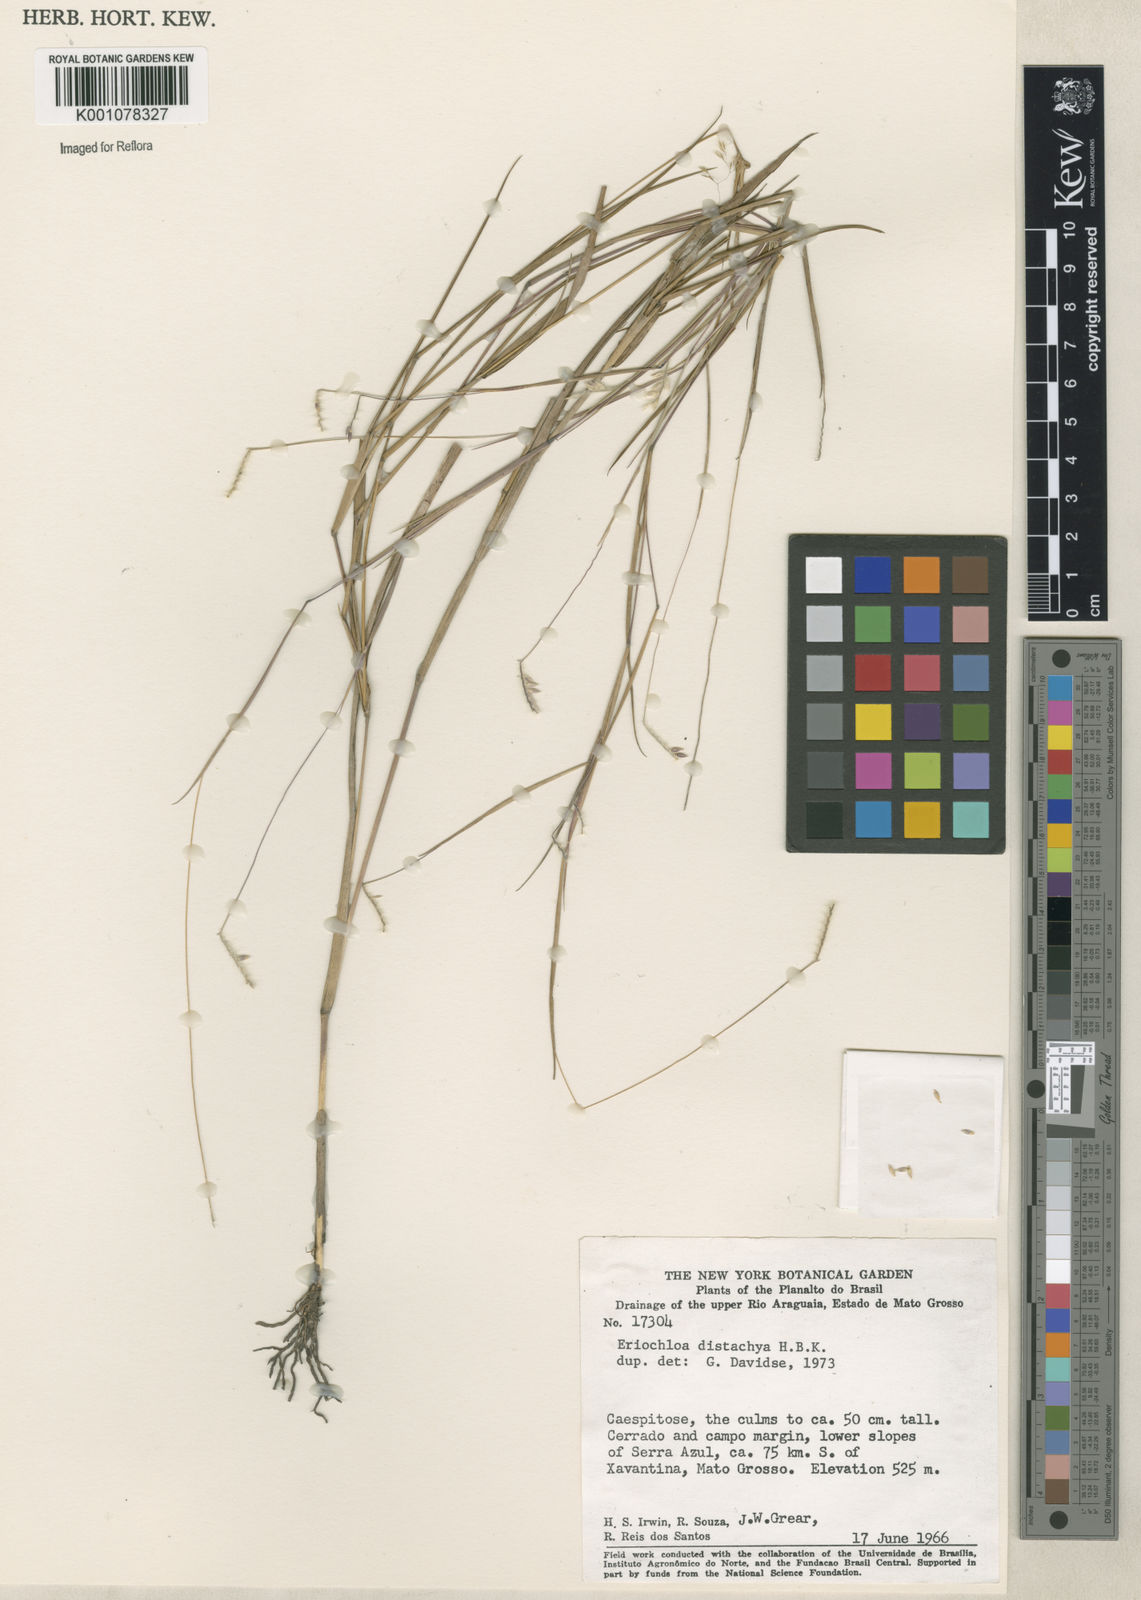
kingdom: Plantae
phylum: Tracheophyta
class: Liliopsida
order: Poales
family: Poaceae
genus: Eriochloa
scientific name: Eriochloa distachya
